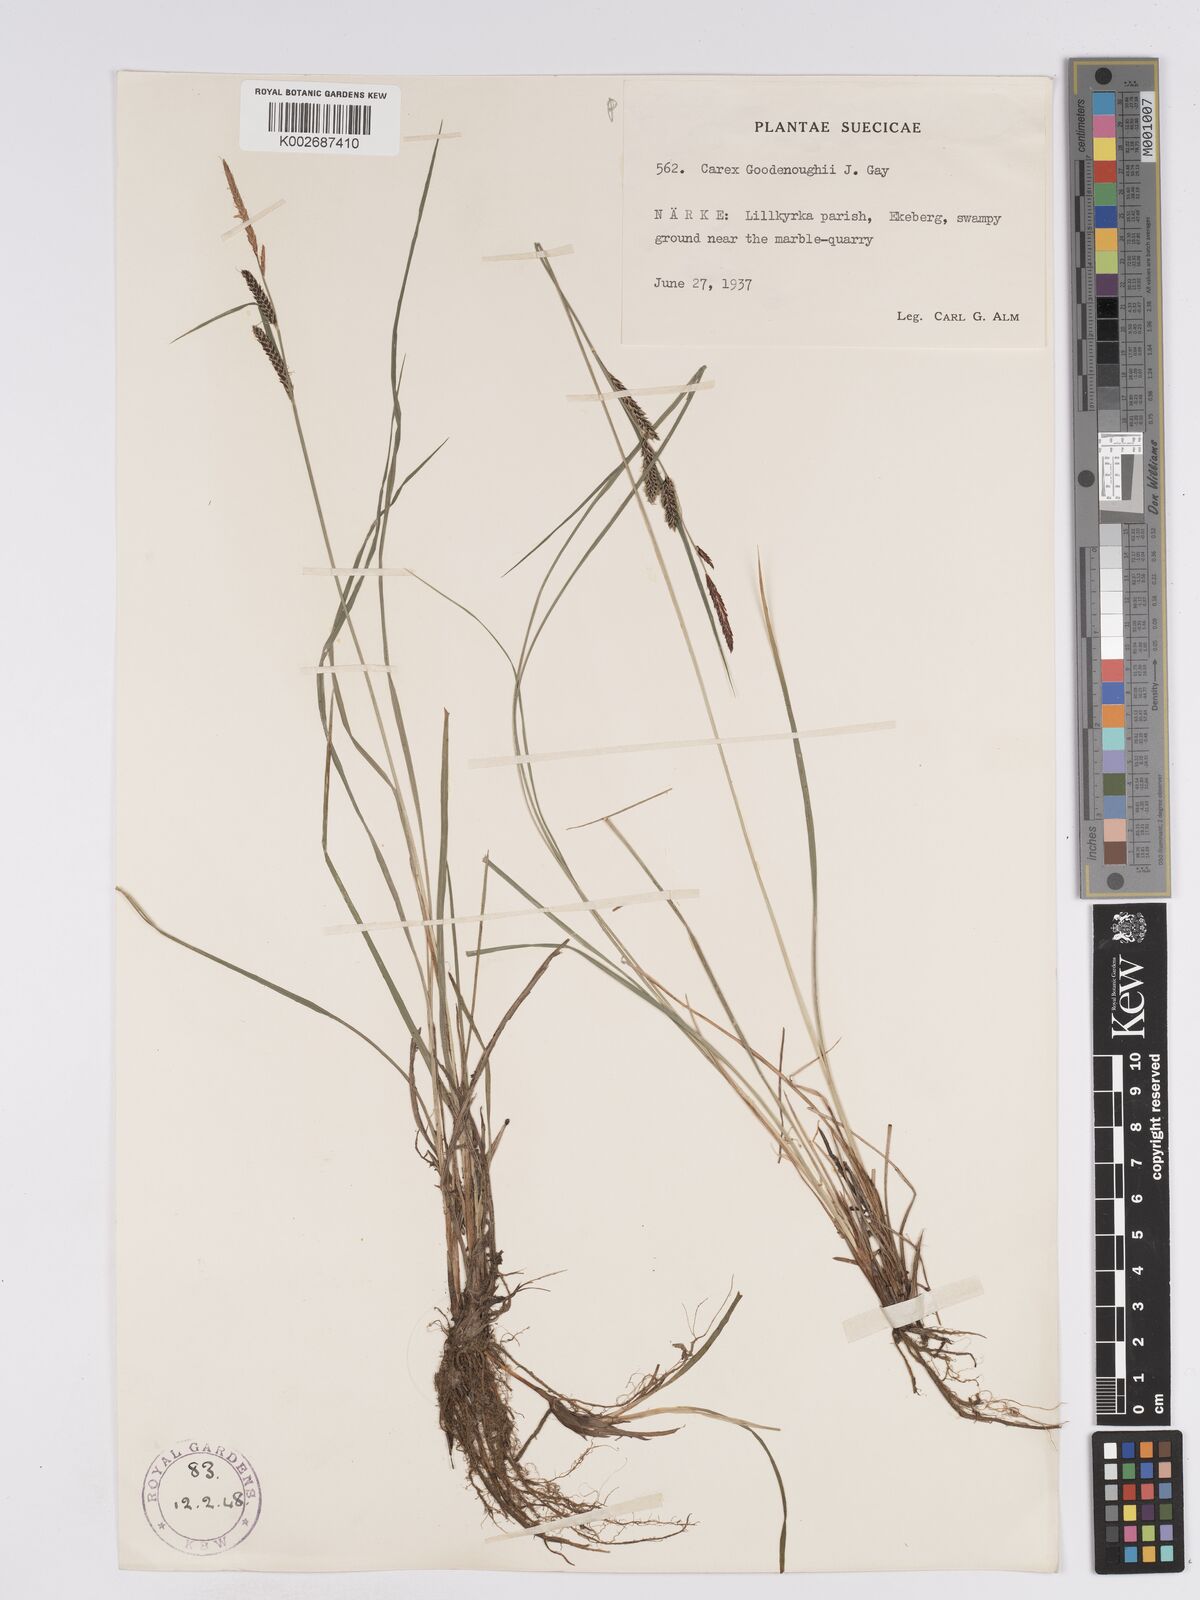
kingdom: Plantae
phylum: Tracheophyta
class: Liliopsida
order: Poales
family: Cyperaceae
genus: Carex
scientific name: Carex nigra
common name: Common sedge
